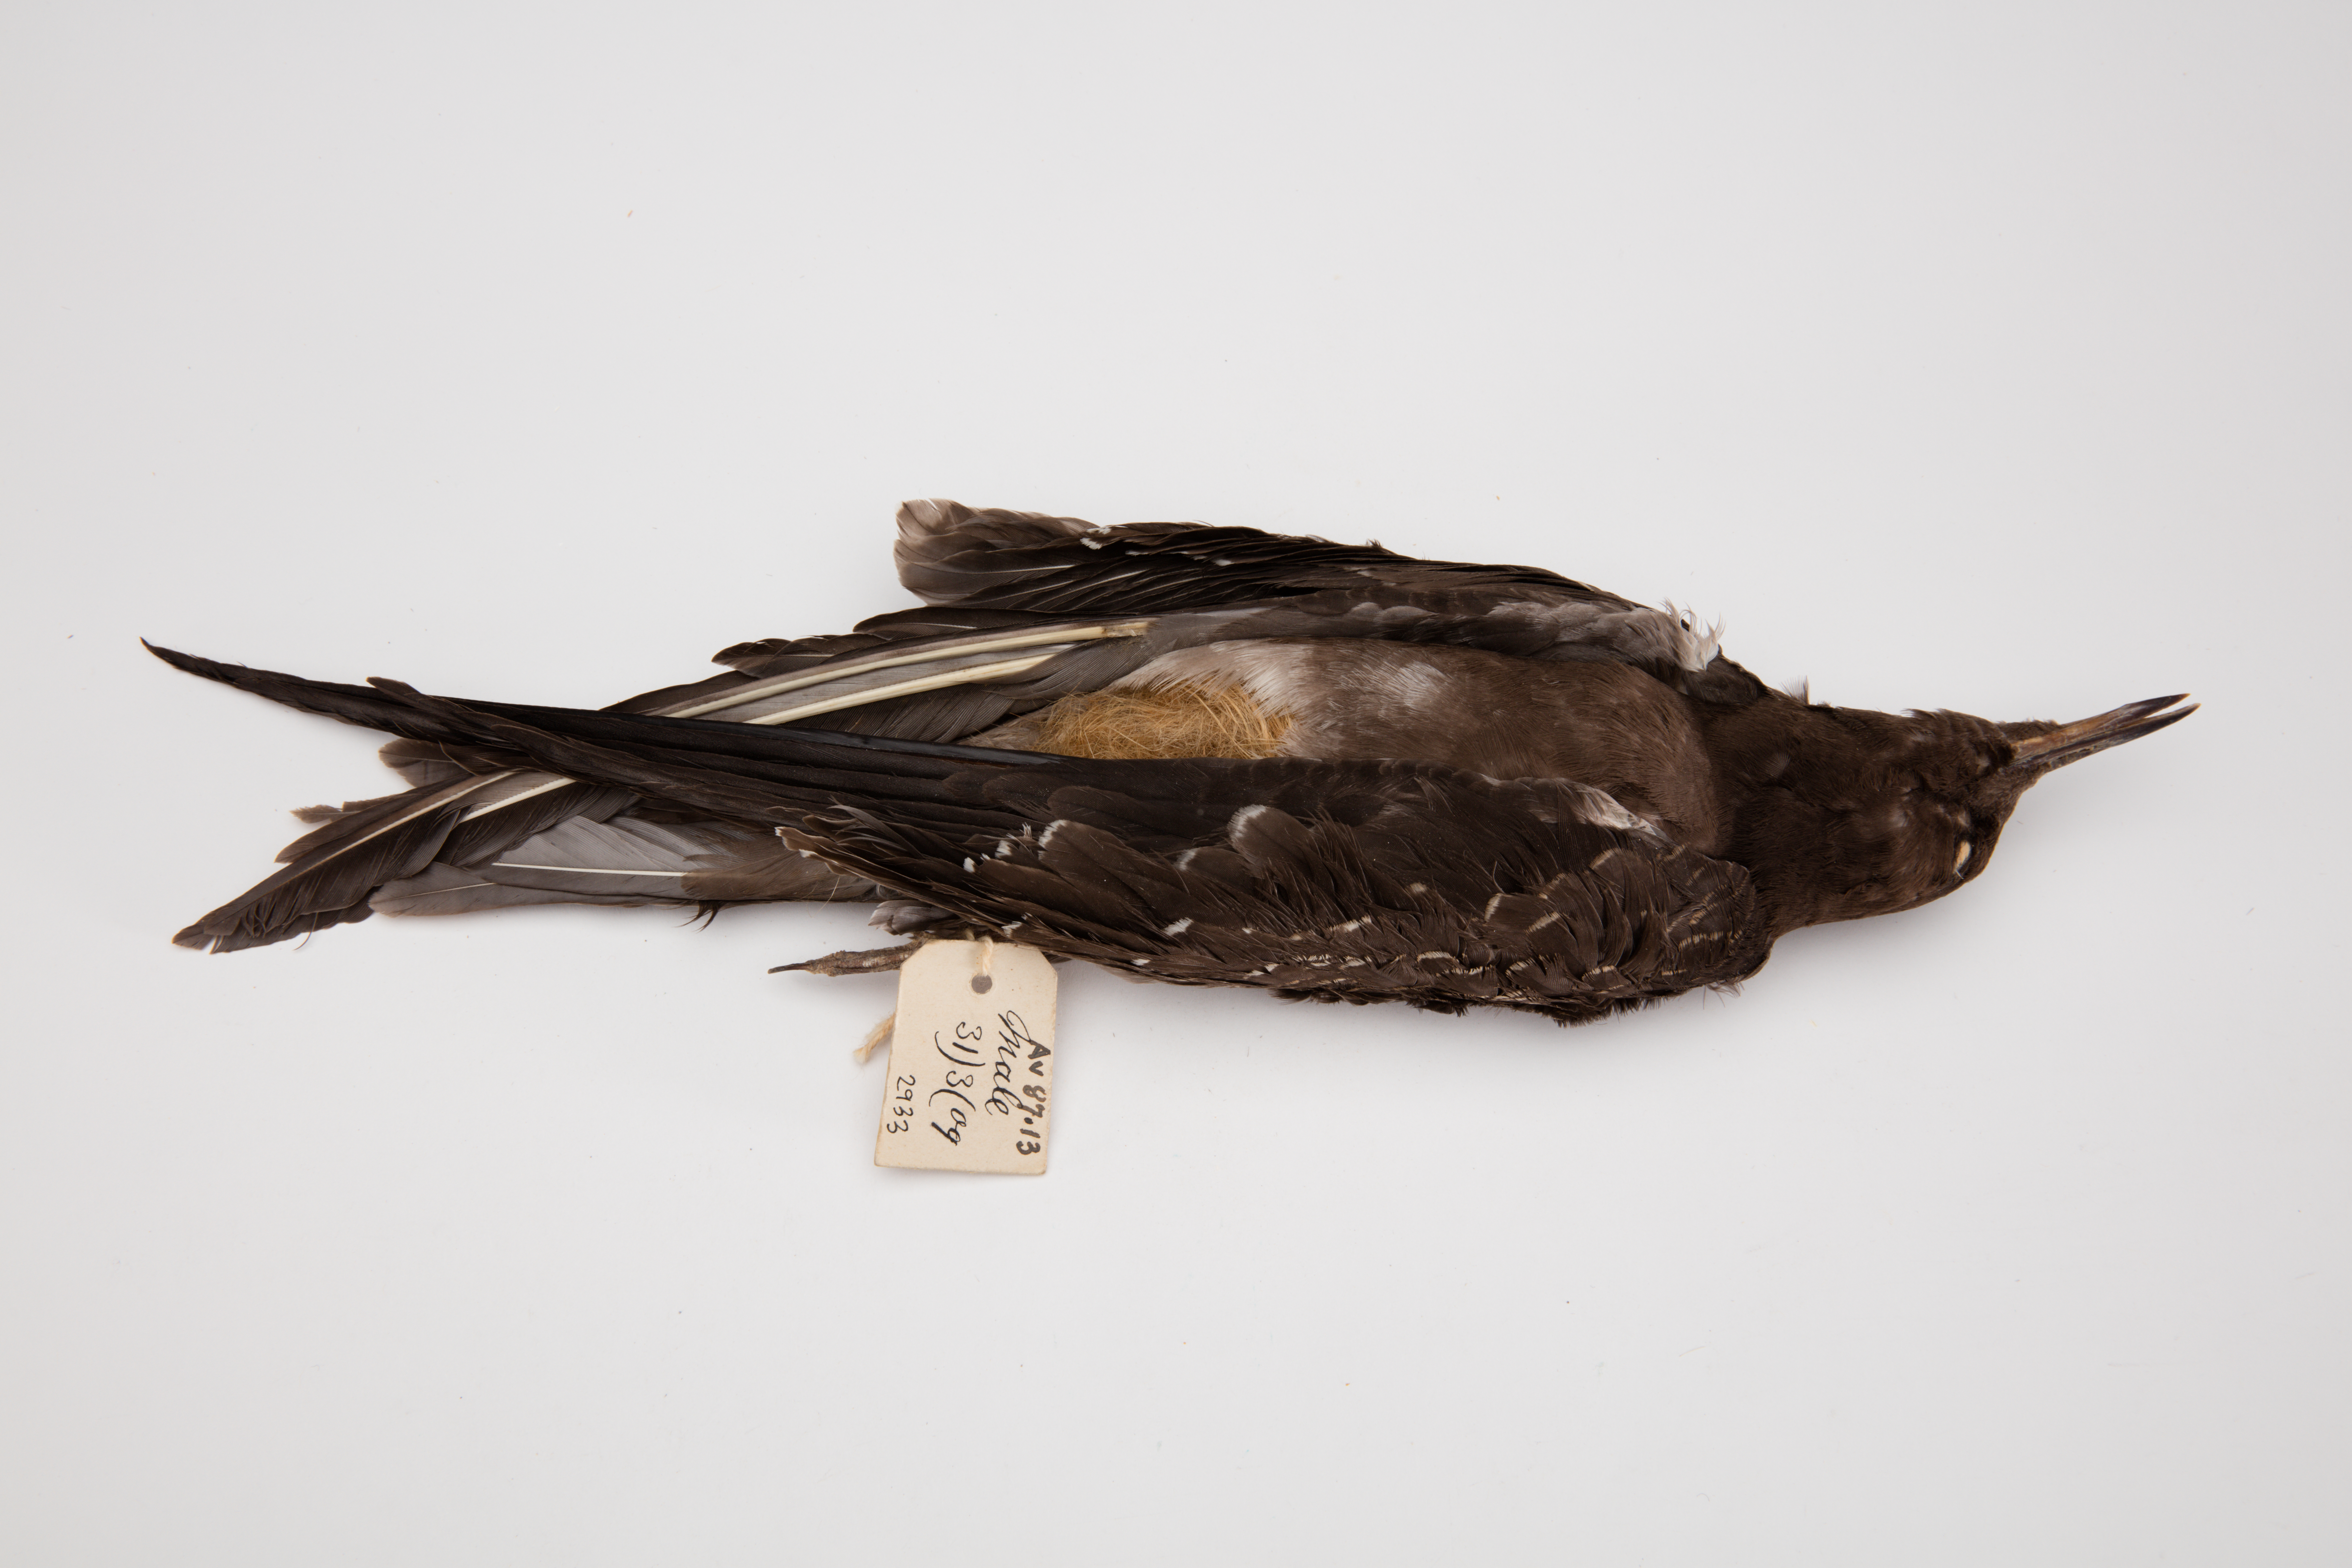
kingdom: Animalia
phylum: Chordata
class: Aves
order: Charadriiformes
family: Laridae
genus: Onychoprion
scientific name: Onychoprion fuscatus
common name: Sooty tern
